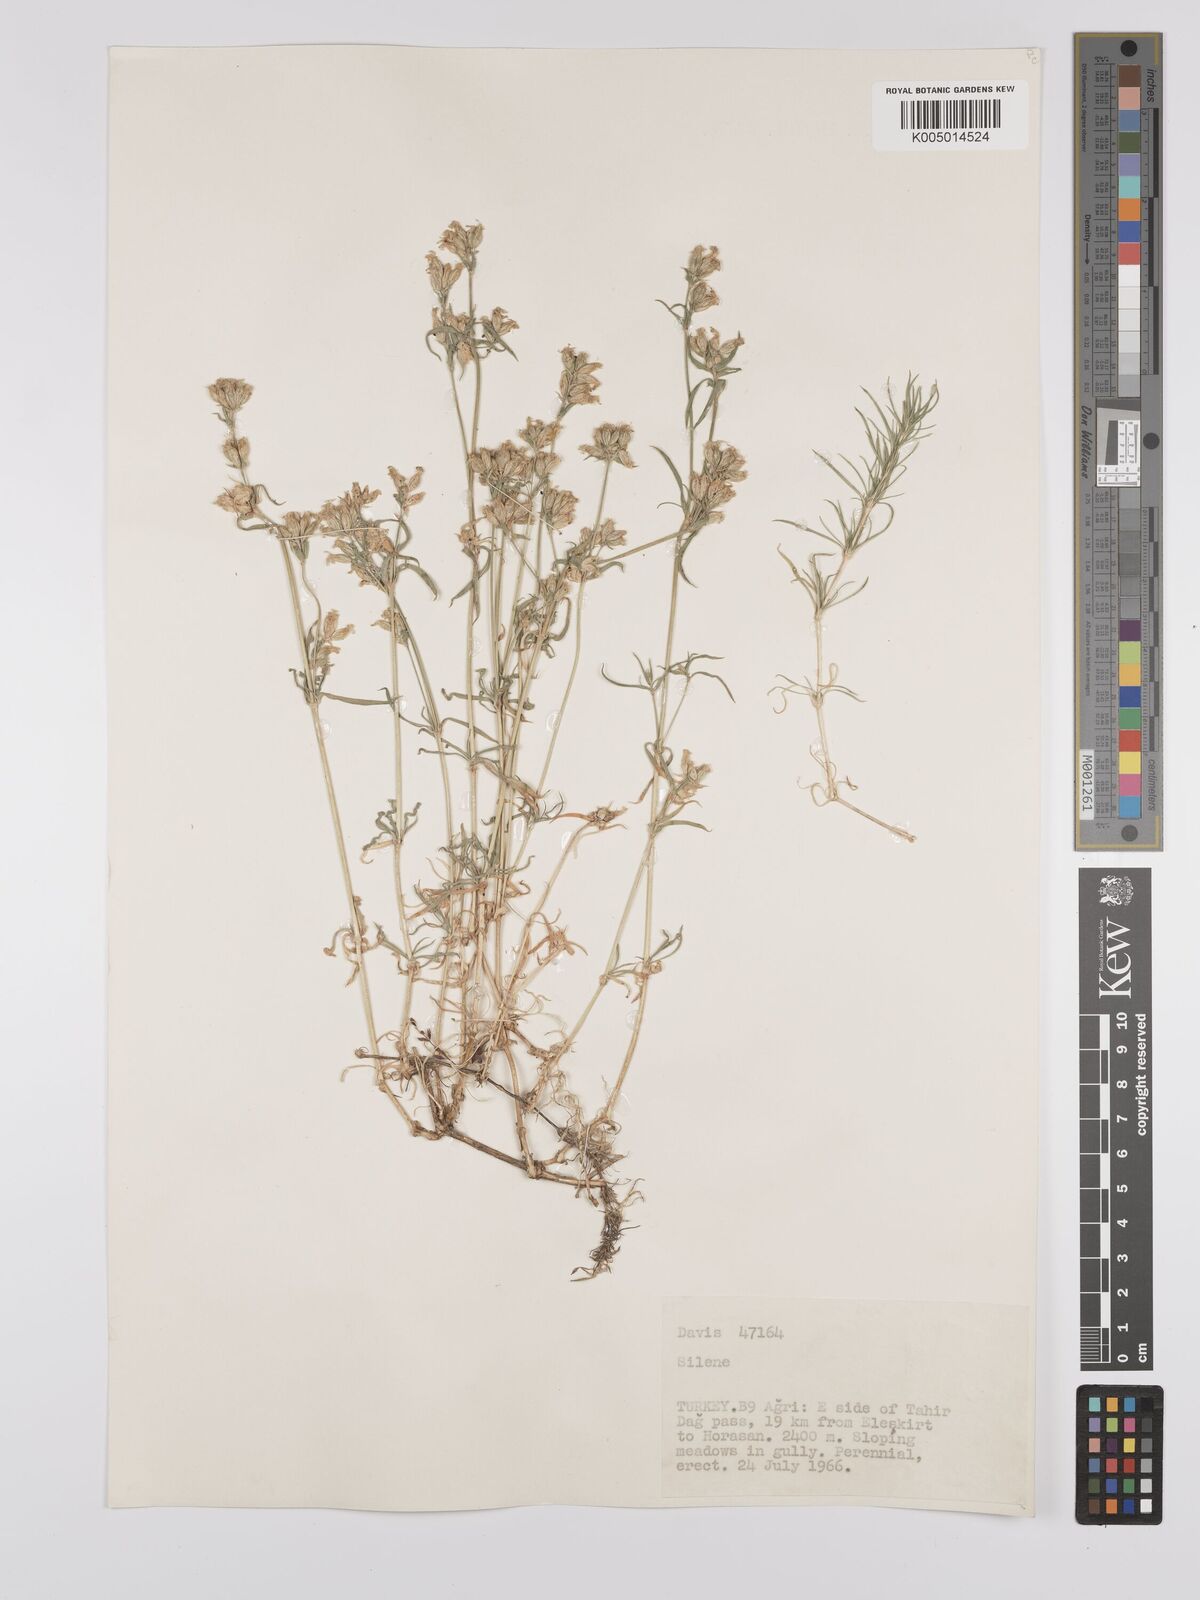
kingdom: Plantae
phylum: Tracheophyta
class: Magnoliopsida
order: Caryophyllales
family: Caryophyllaceae
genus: Silene
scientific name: Silene
